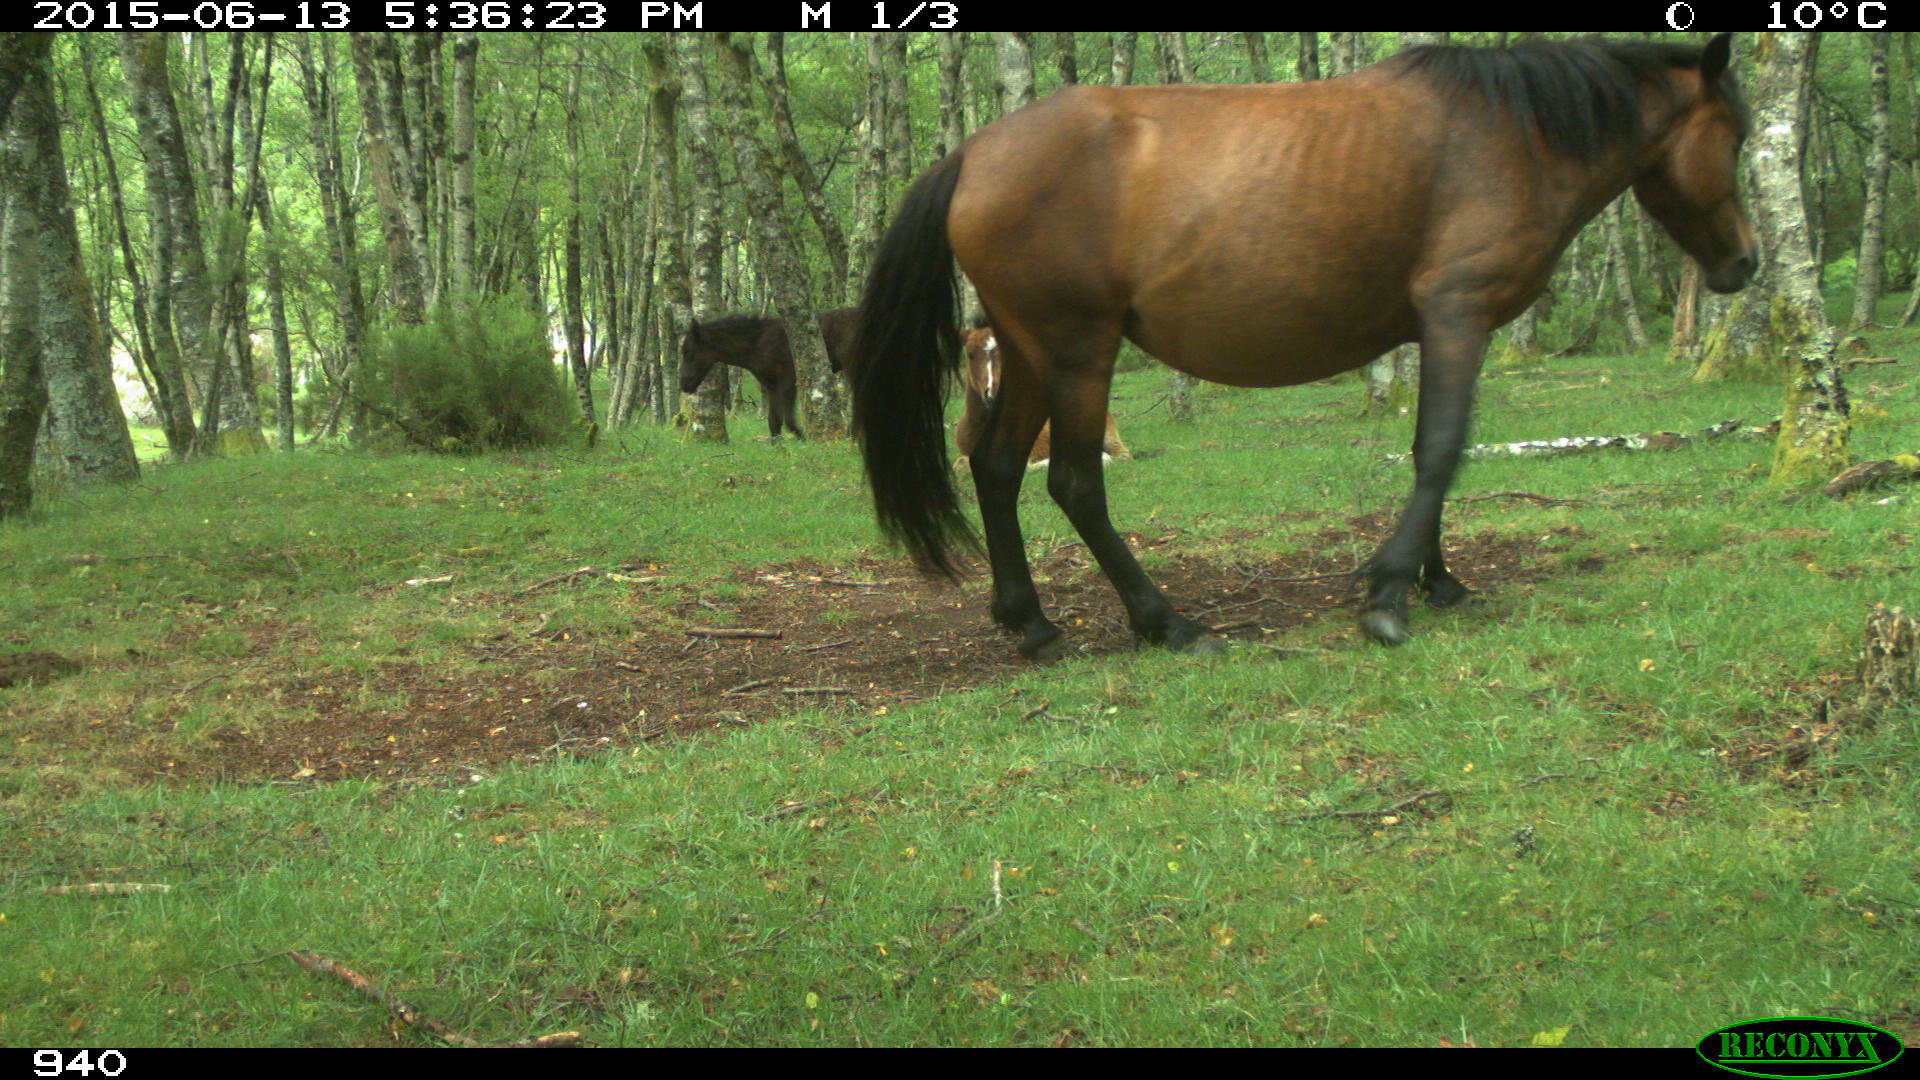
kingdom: Animalia
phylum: Chordata
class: Mammalia
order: Perissodactyla
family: Equidae
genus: Equus
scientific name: Equus caballus
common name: Horse
